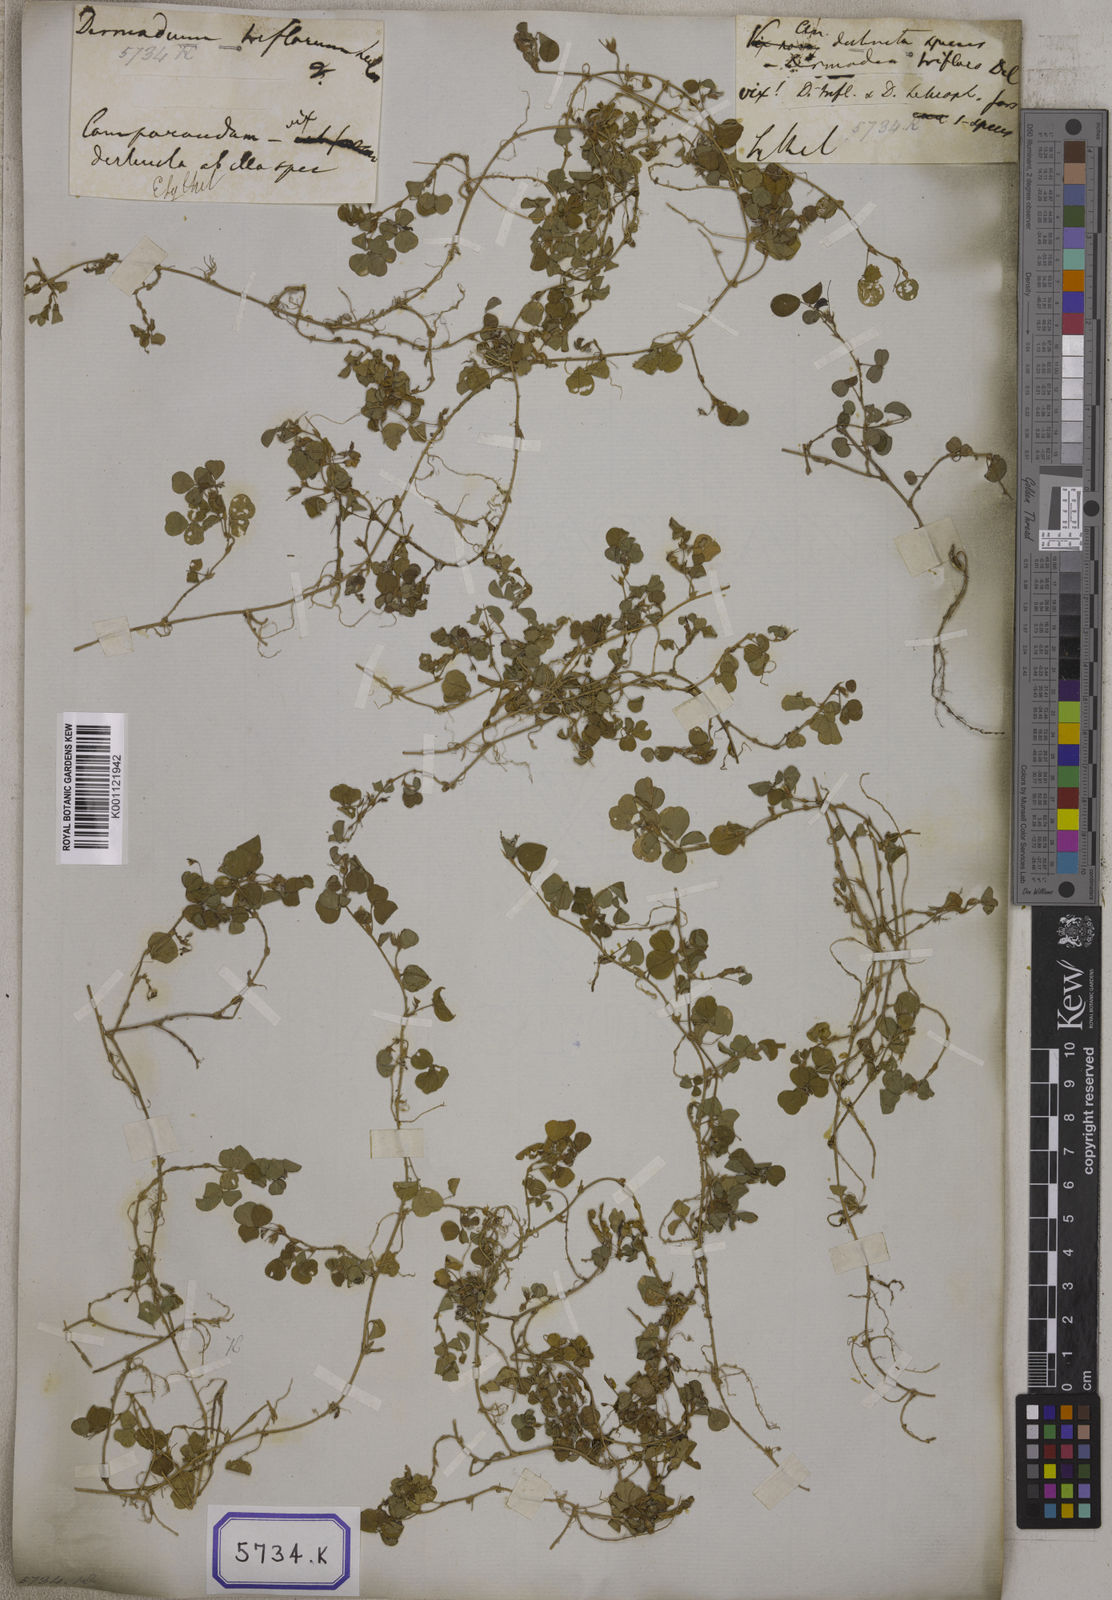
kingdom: Plantae
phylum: Tracheophyta
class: Magnoliopsida
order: Fabales
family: Fabaceae
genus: Desmodium
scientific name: Desmodium
